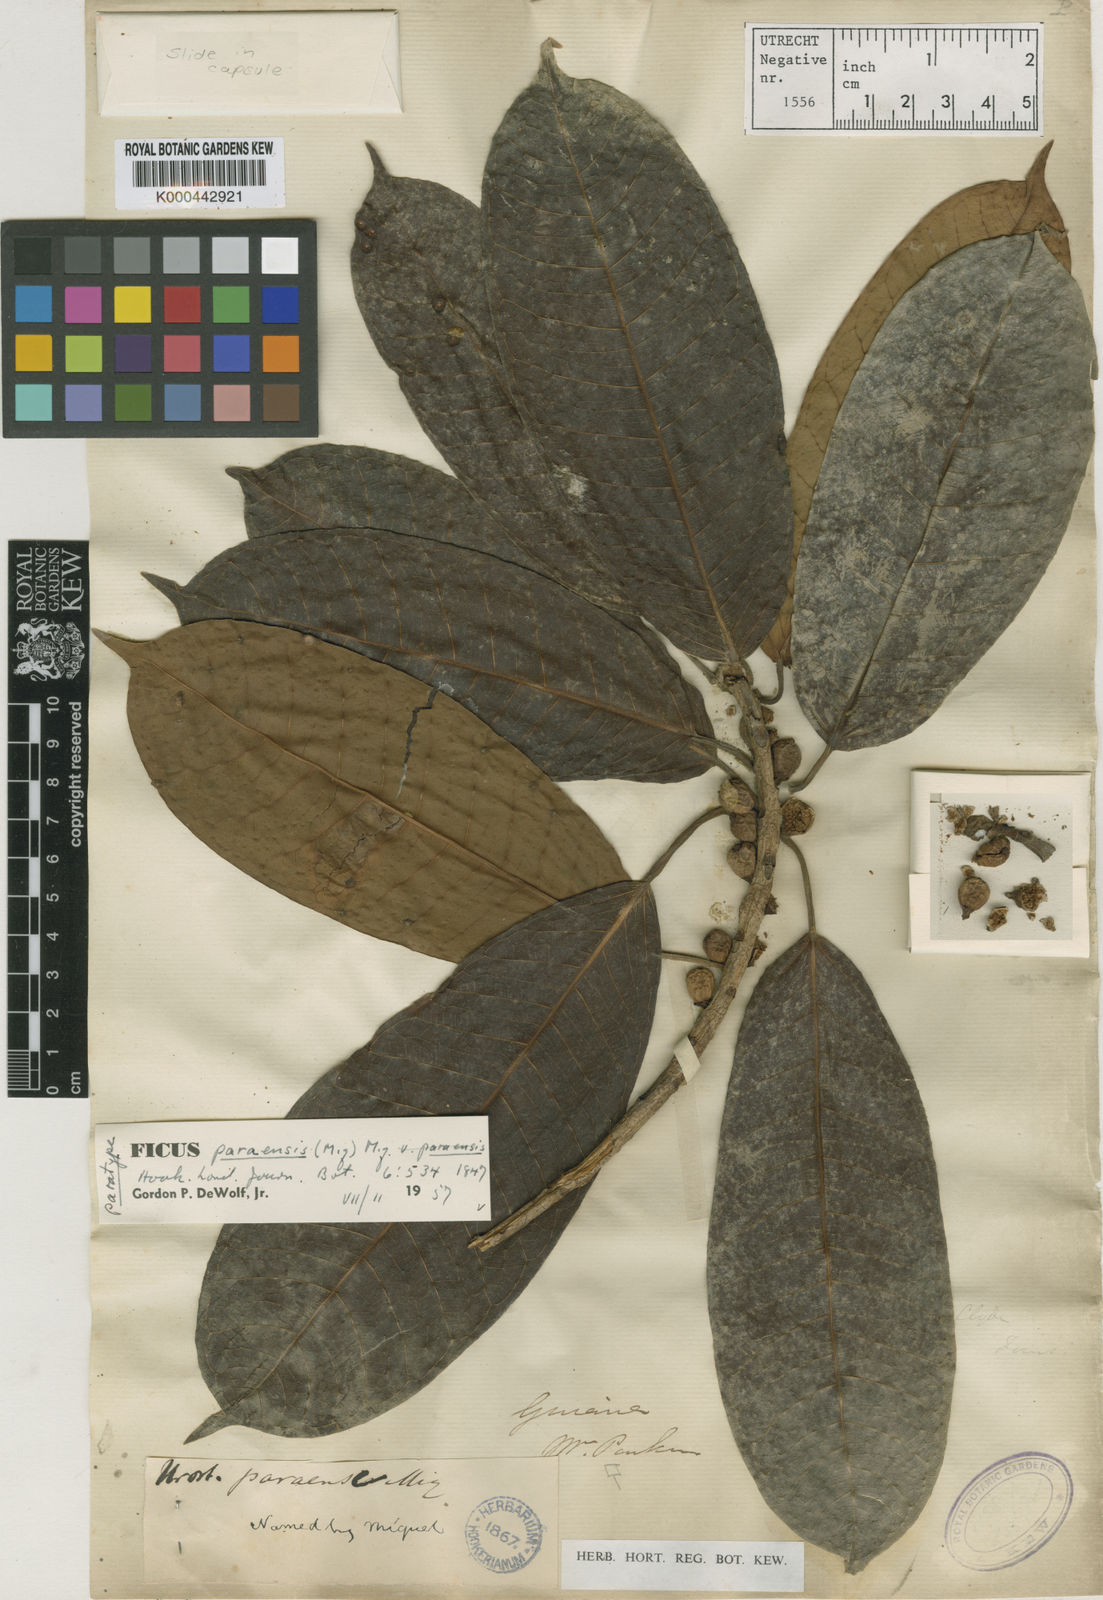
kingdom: Plantae
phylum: Tracheophyta
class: Magnoliopsida
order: Rosales
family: Moraceae
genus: Ficus
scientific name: Ficus paraensis
